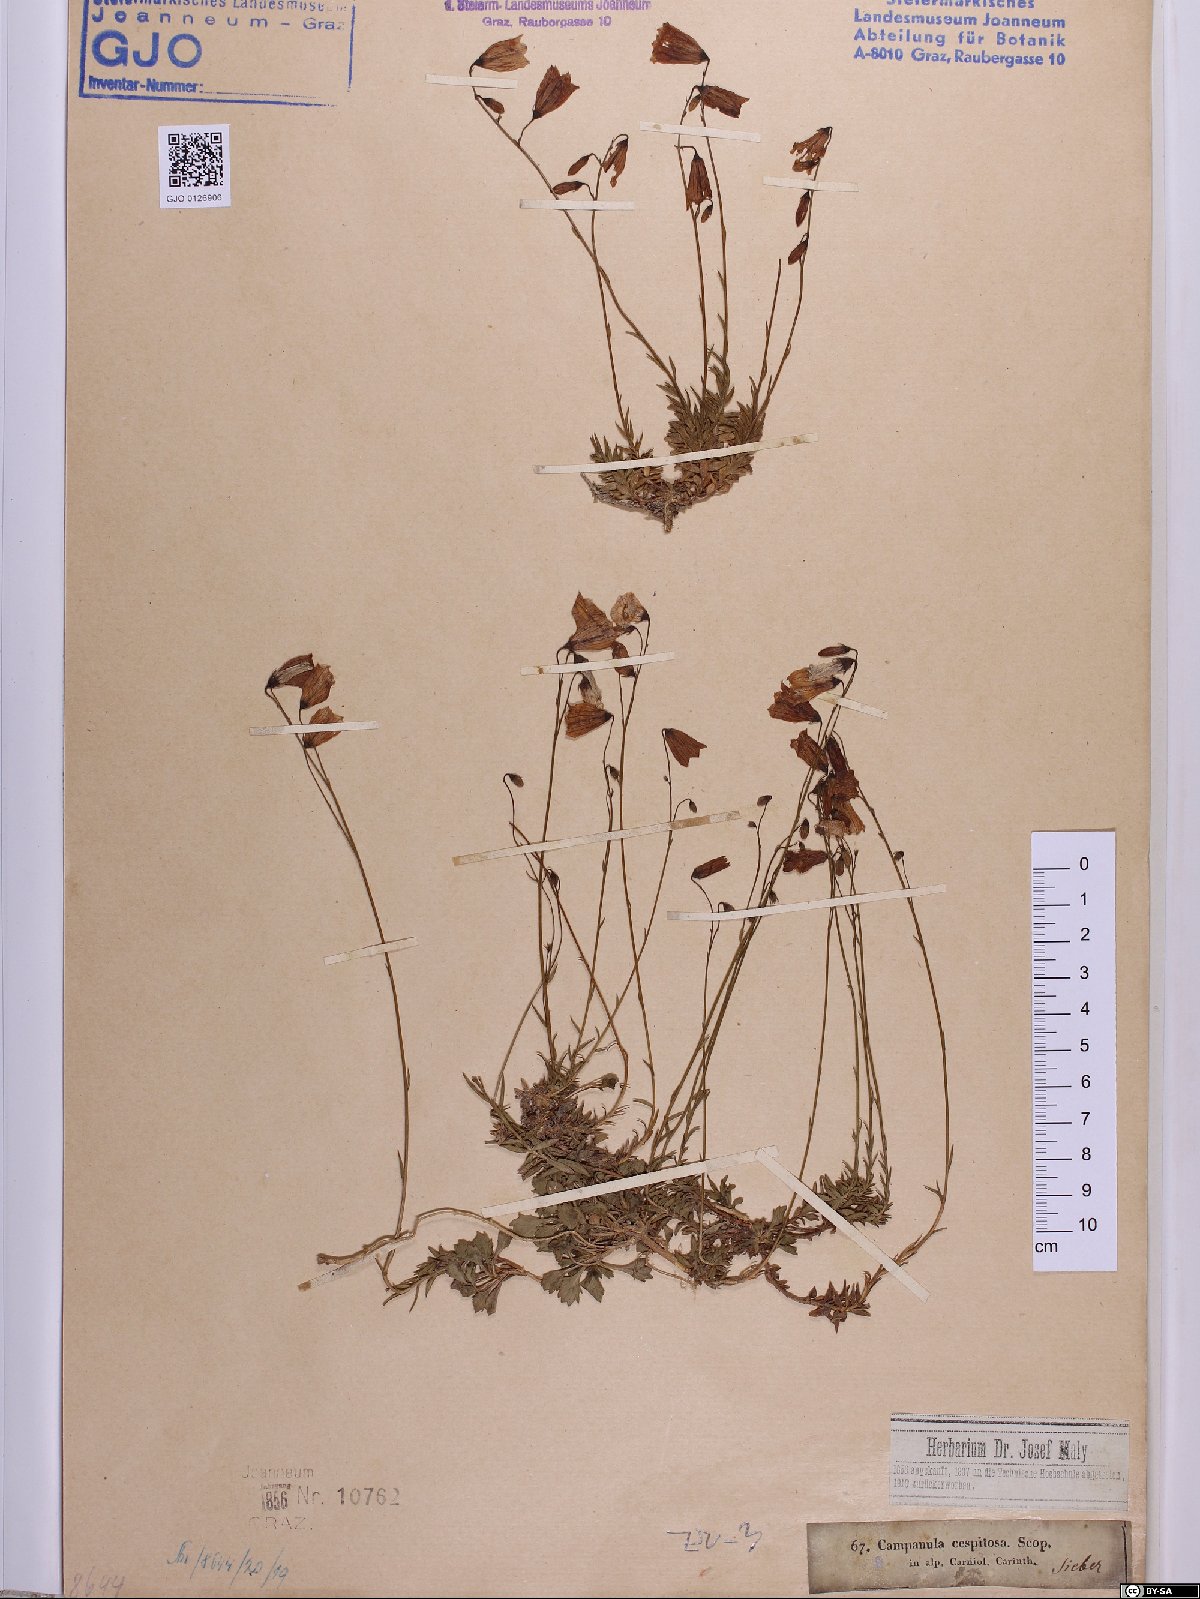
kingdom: Plantae
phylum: Tracheophyta
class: Magnoliopsida
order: Asterales
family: Campanulaceae
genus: Campanula
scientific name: Campanula cespitosa
